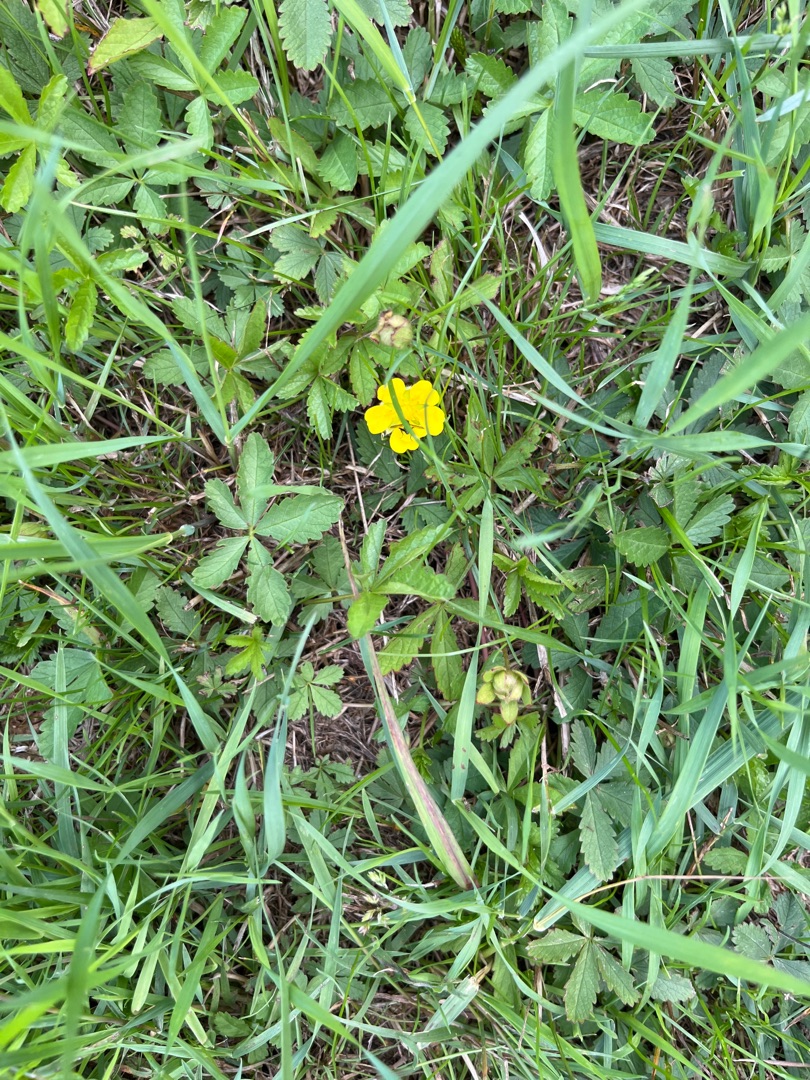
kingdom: Plantae
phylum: Tracheophyta
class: Magnoliopsida
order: Rosales
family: Rosaceae
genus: Potentilla
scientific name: Potentilla reptans
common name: Krybende potentil
